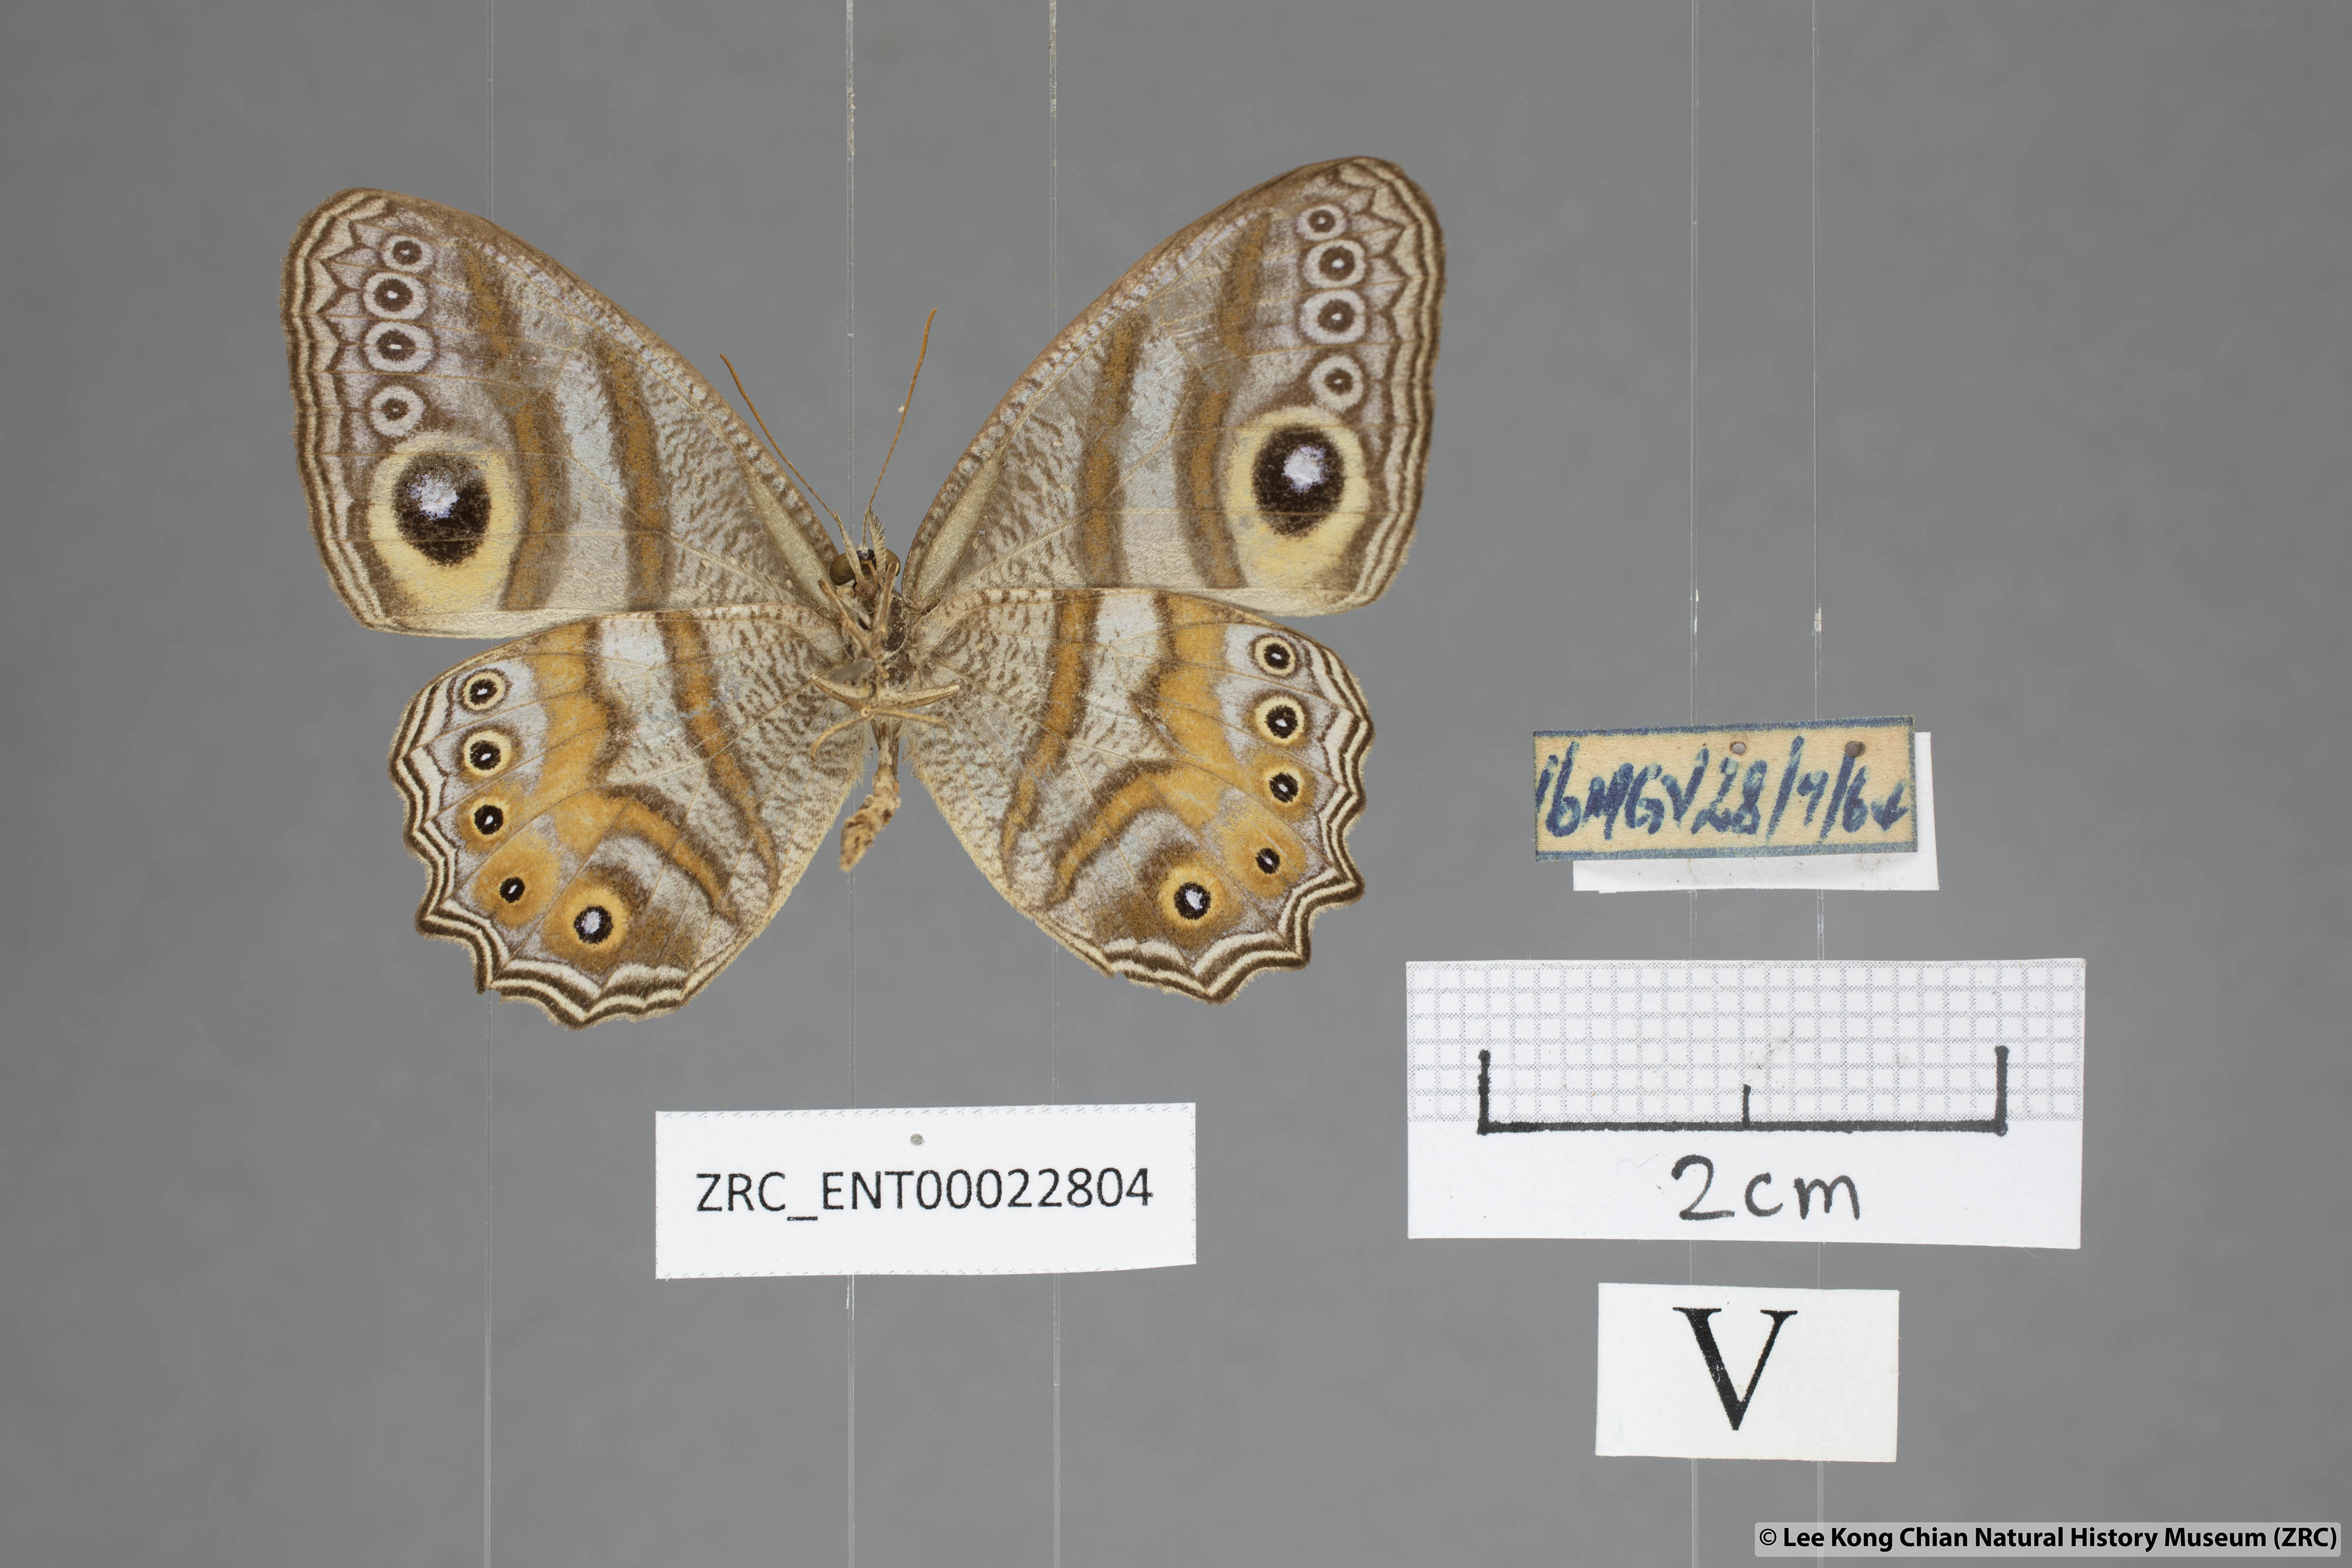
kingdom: Animalia
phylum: Arthropoda
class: Insecta
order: Lepidoptera
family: Nymphalidae
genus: Erites
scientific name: Erites argentina
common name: Eyed cyclops
